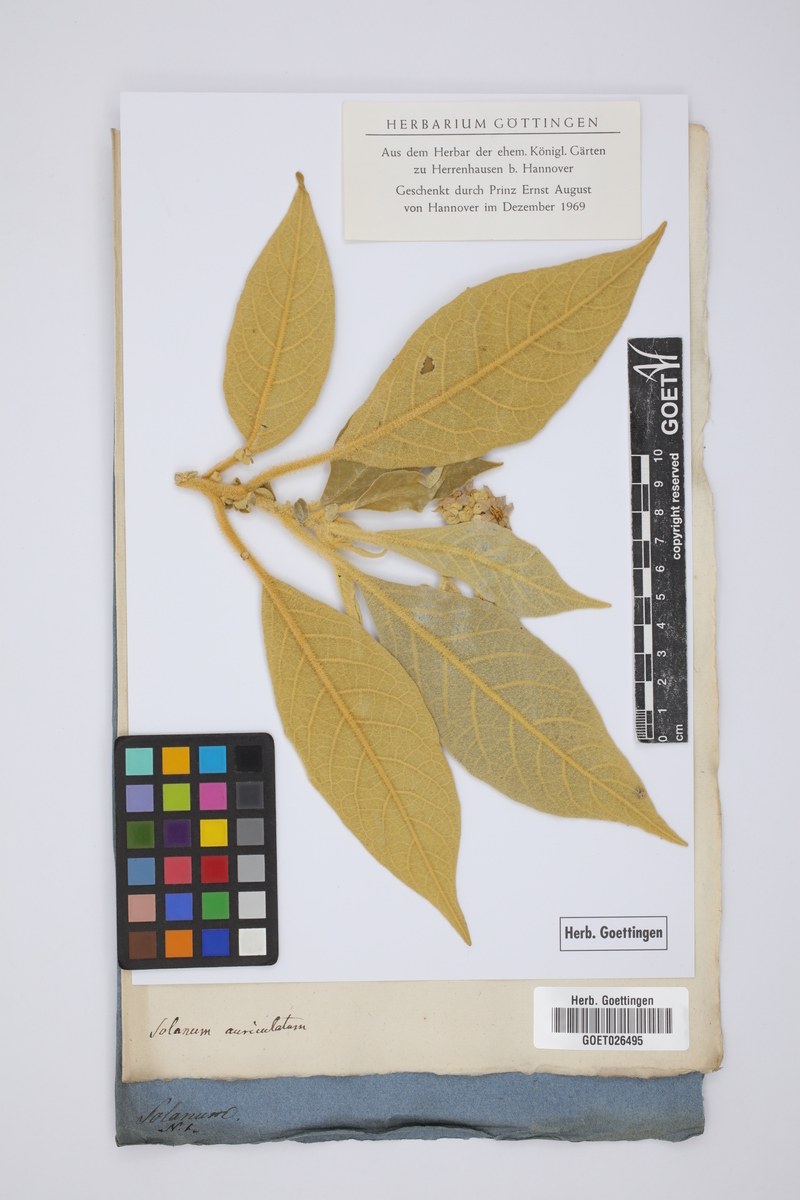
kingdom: Plantae
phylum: Tracheophyta
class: Magnoliopsida
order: Solanales
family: Solanaceae
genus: Solanum
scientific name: Solanum mauritianum
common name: Earleaf nightshade
